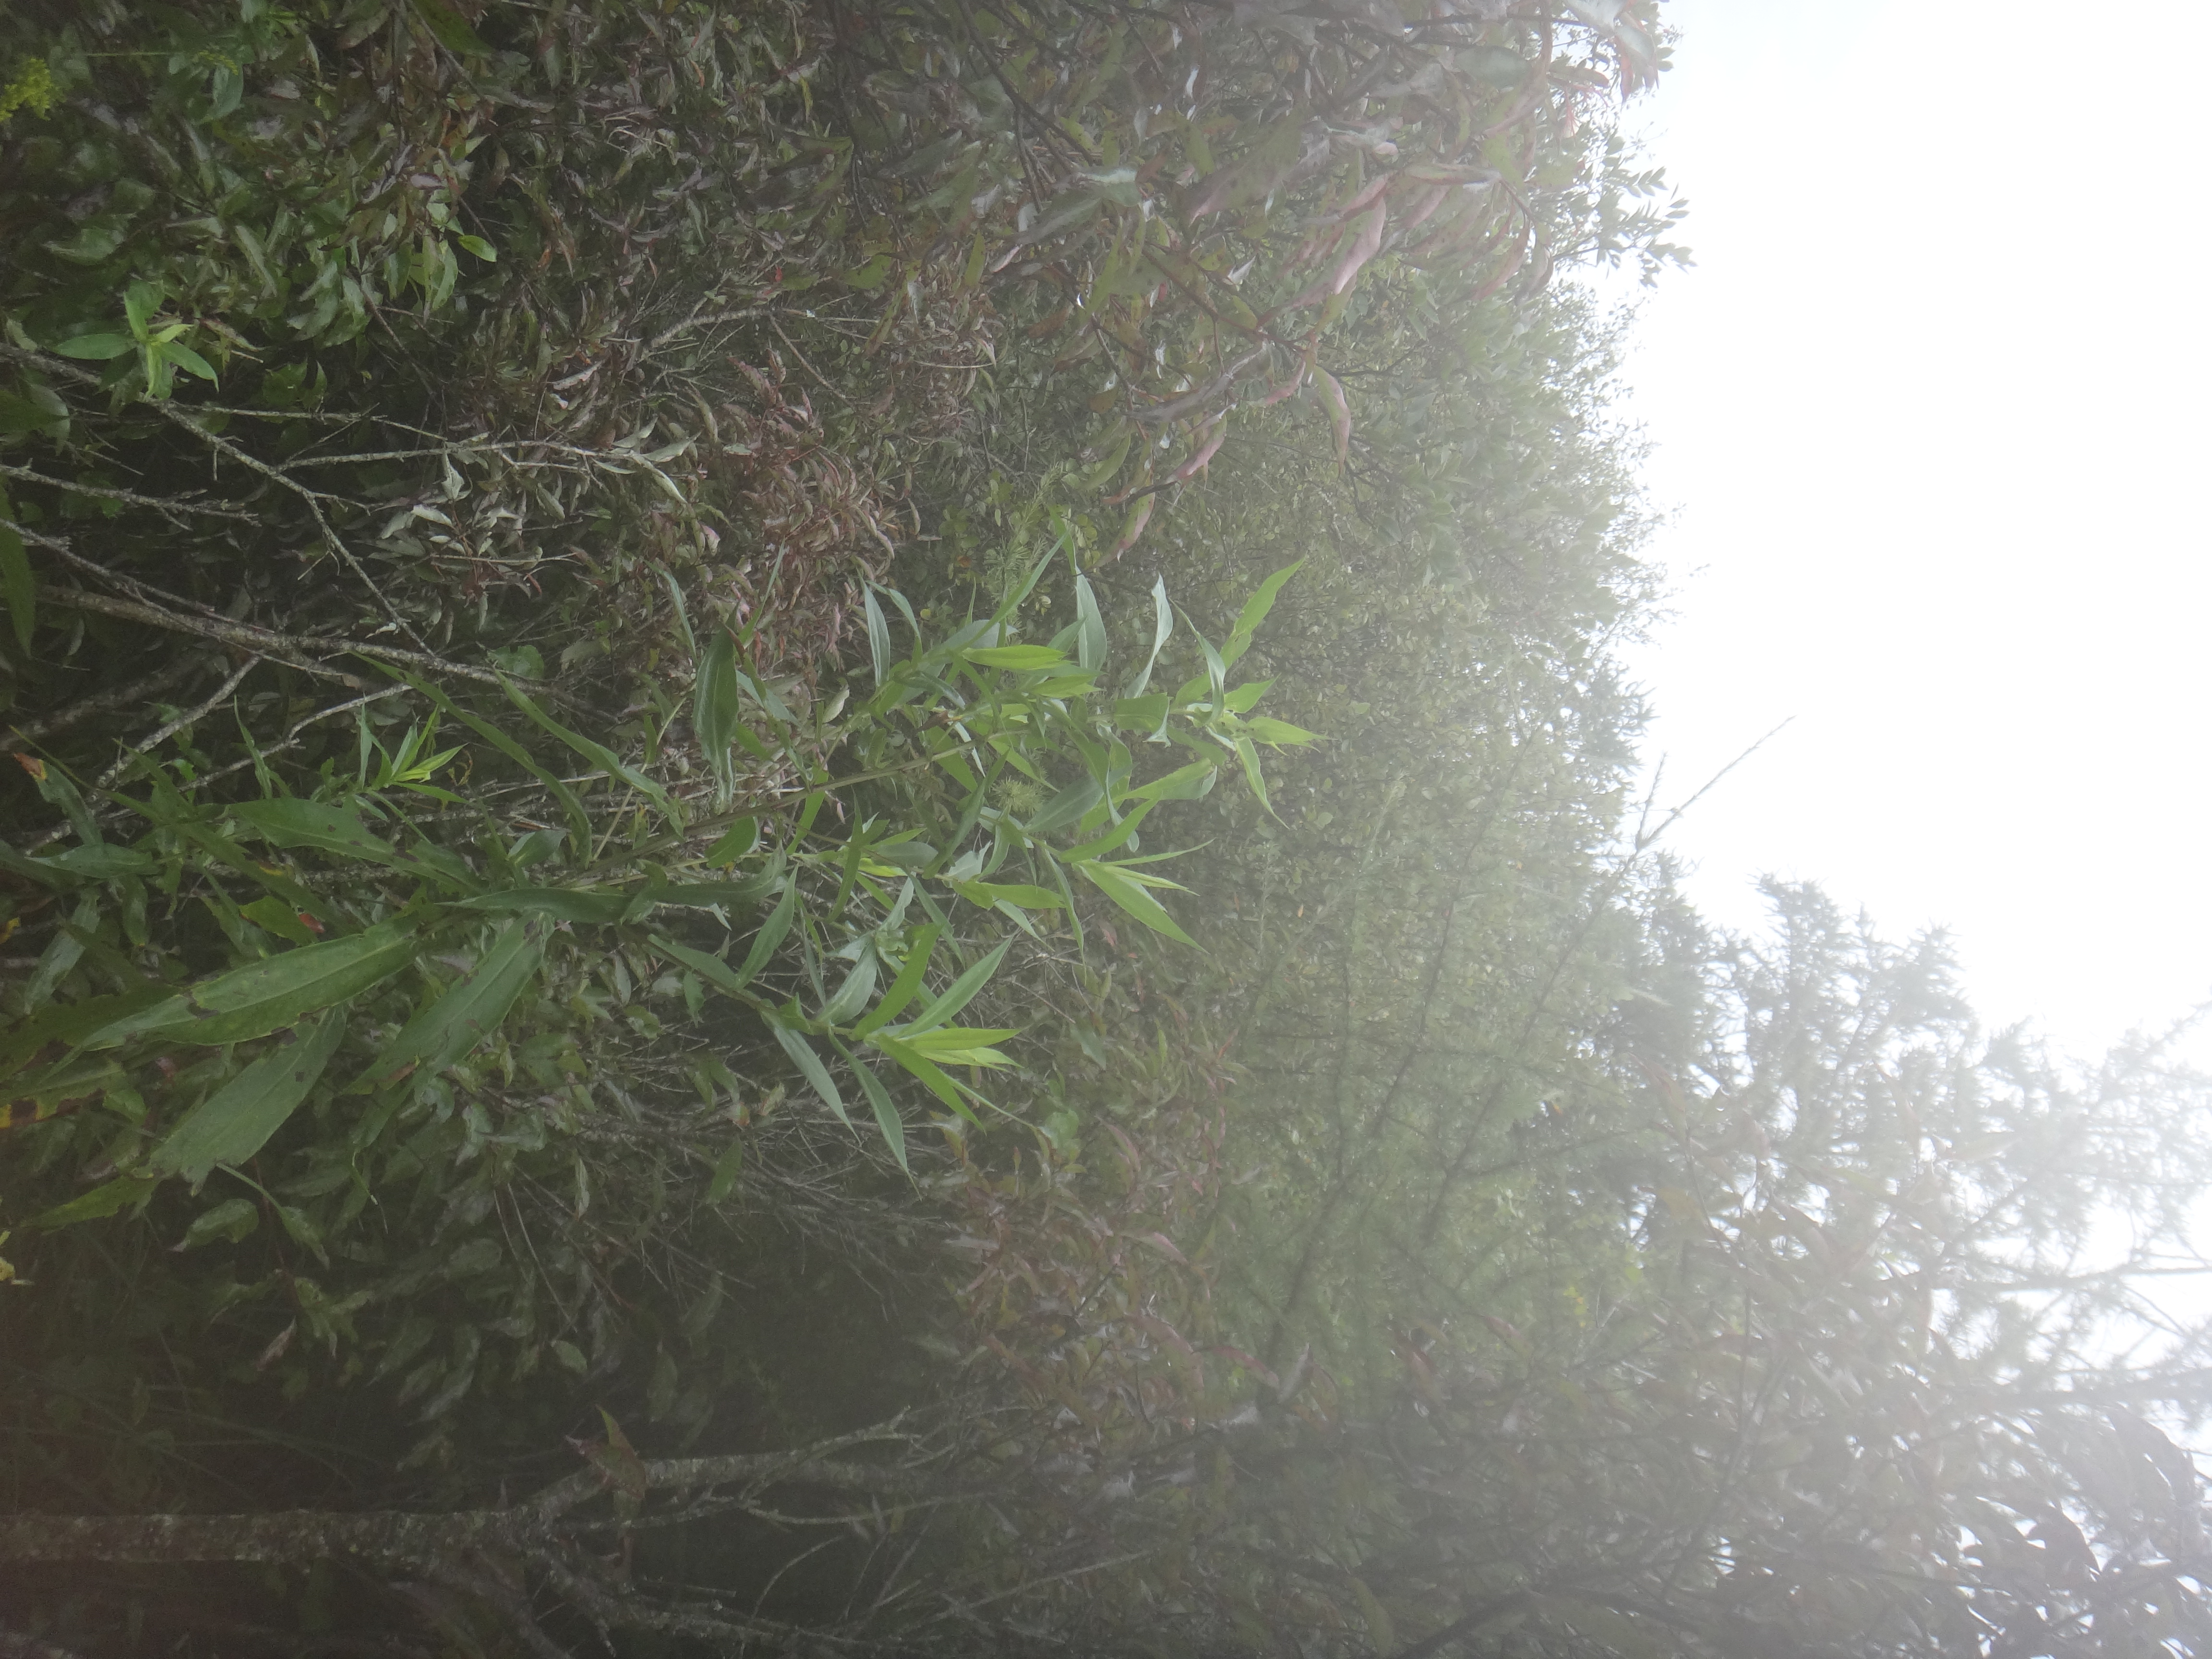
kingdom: Plantae
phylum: Tracheophyta
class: Magnoliopsida
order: Asterales
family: Asteraceae
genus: Solidago
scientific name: Solidago rugosa
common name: Rough-stemmed goldenrod
